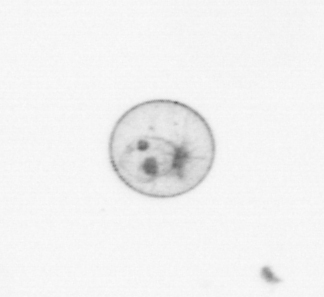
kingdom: Chromista
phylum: Myzozoa
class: Dinophyceae
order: Noctilucales
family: Noctilucaceae
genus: Noctiluca
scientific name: Noctiluca scintillans
